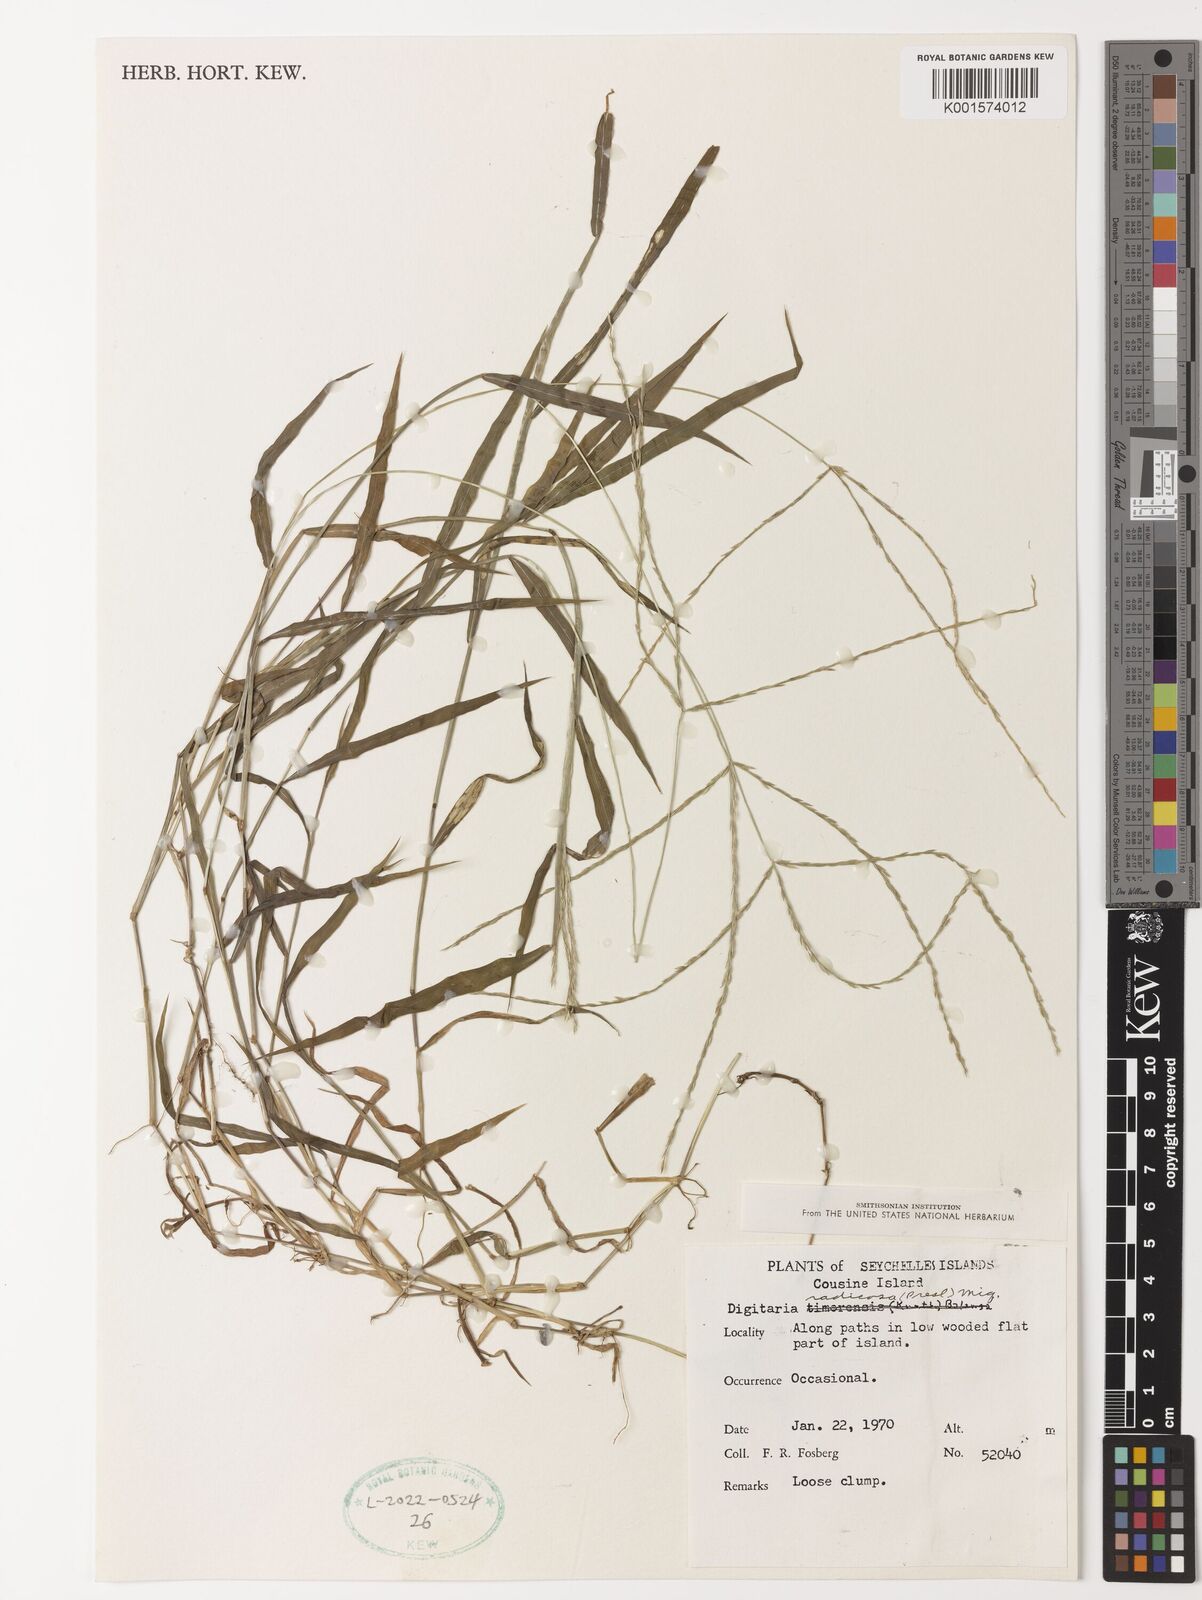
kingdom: Plantae
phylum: Tracheophyta
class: Liliopsida
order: Poales
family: Poaceae
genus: Digitaria
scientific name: Digitaria radicosa
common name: Trailing crabgrass
